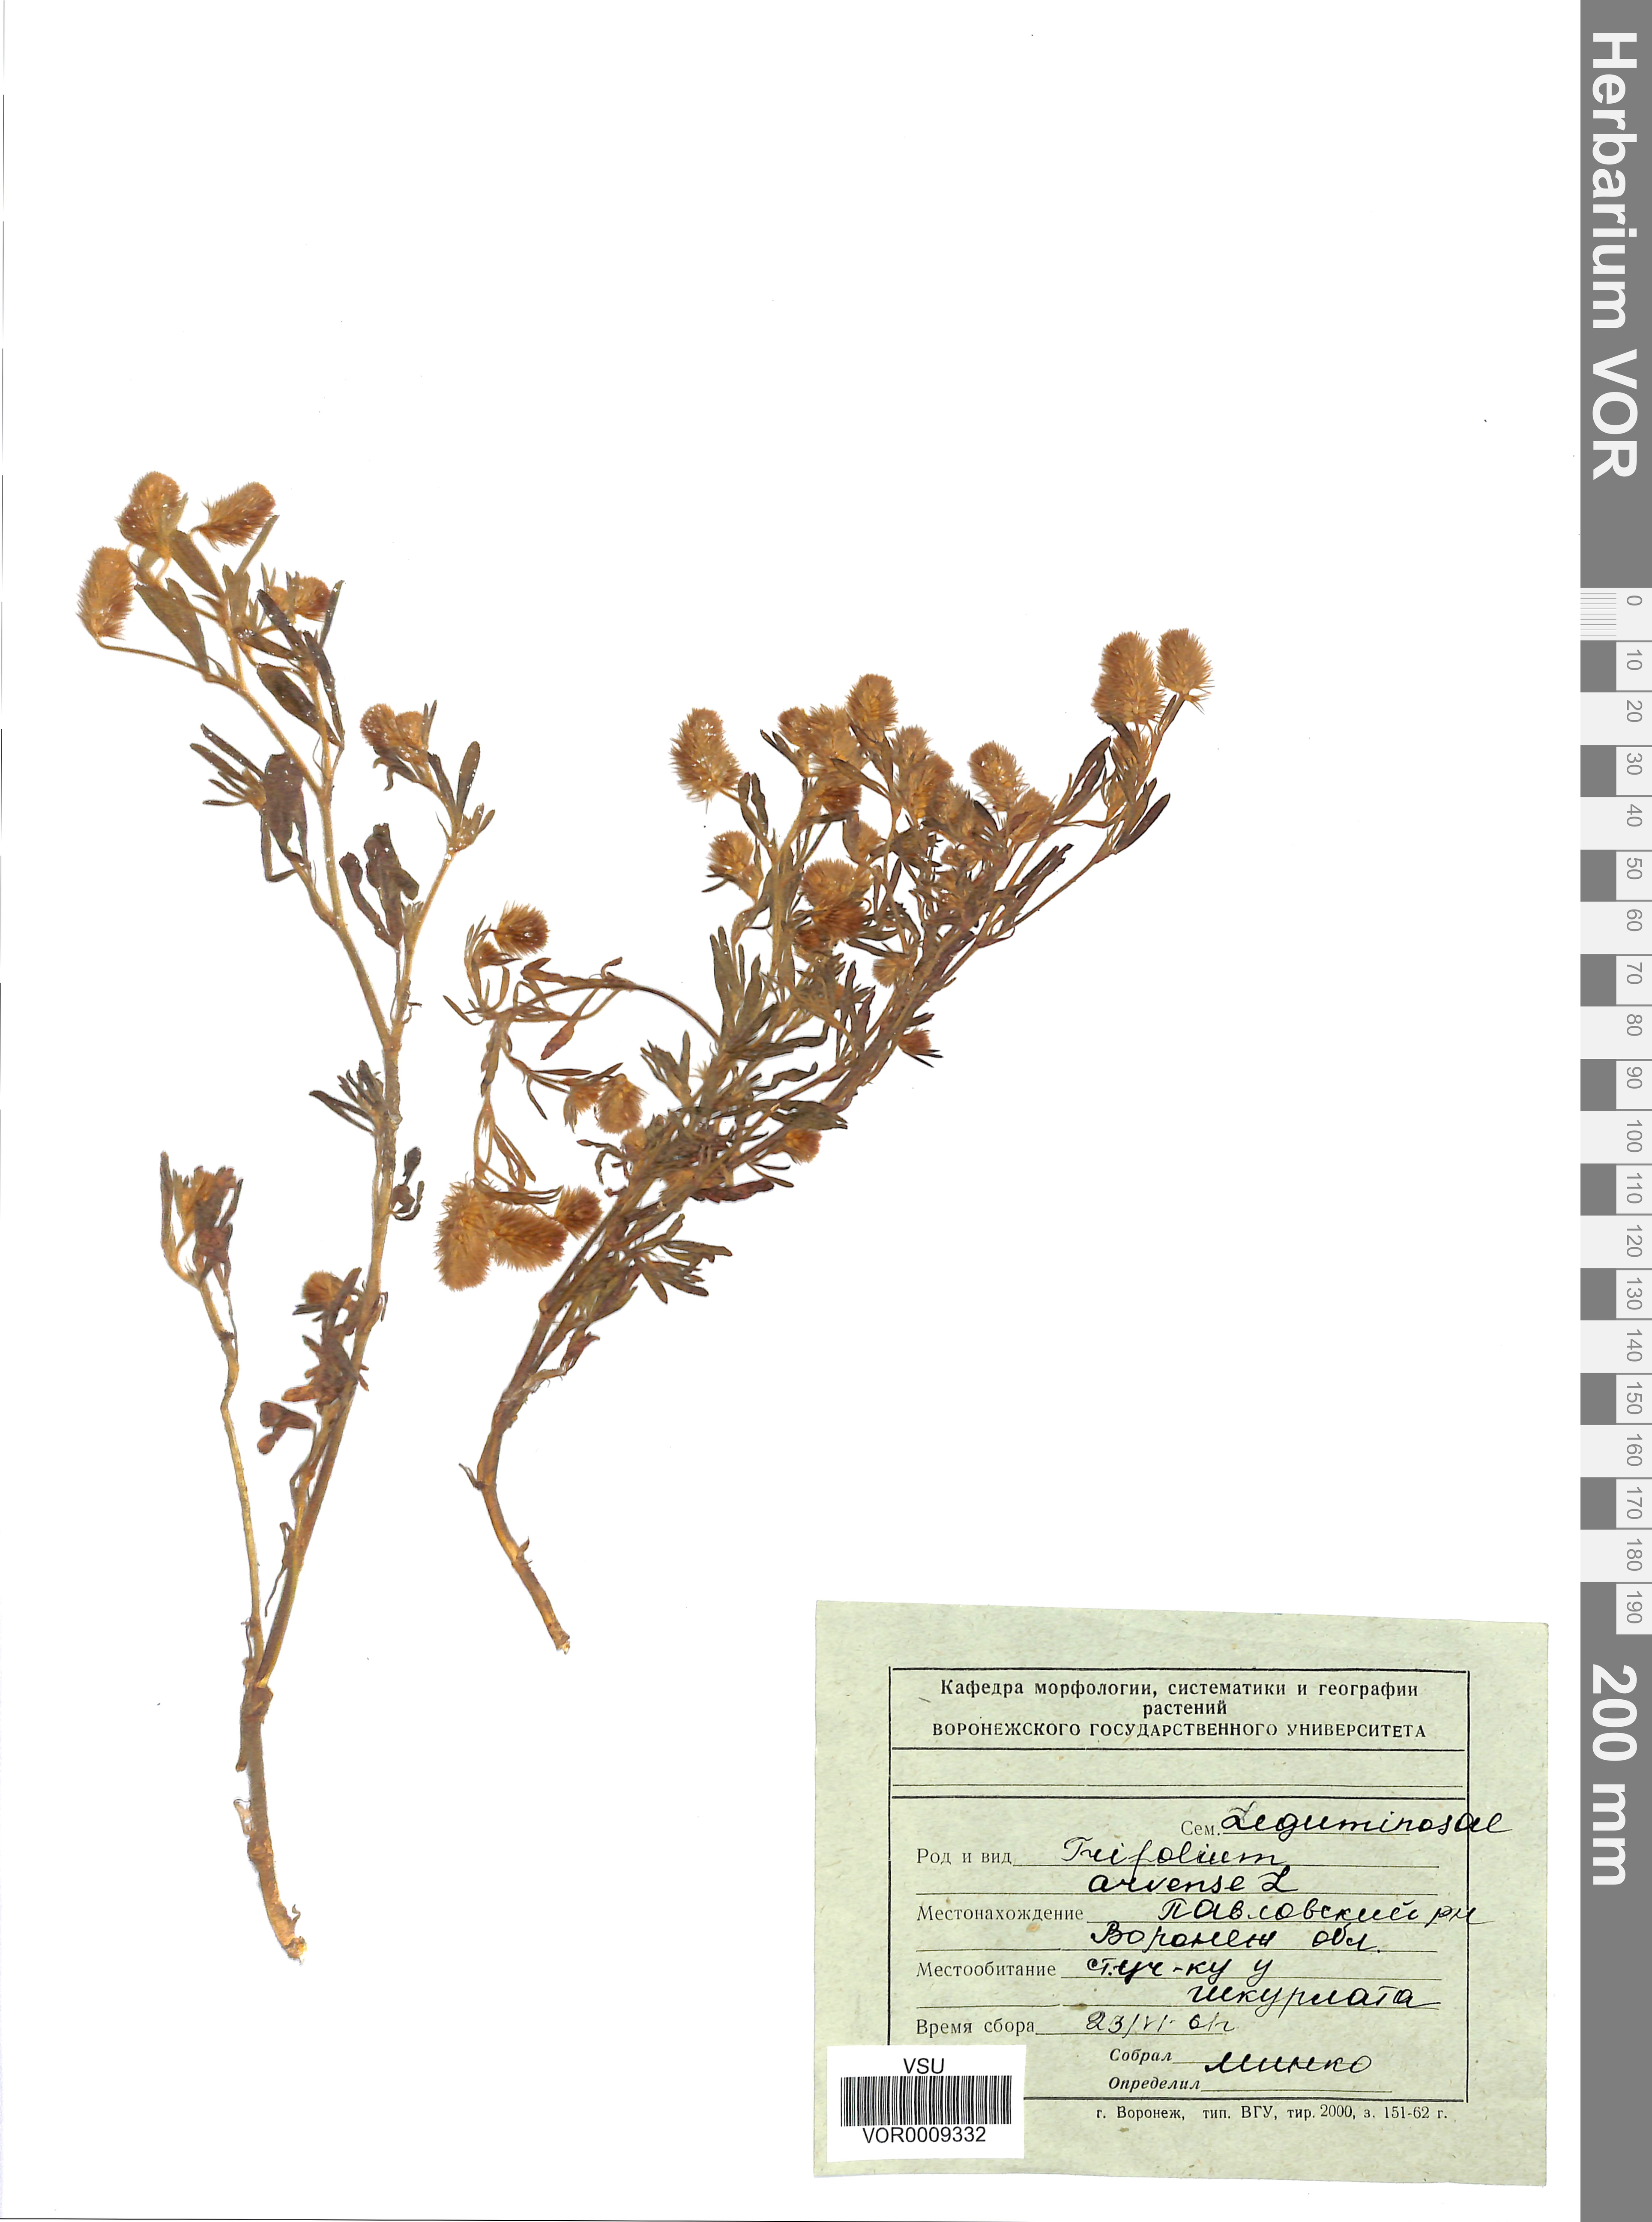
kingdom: Plantae
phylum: Tracheophyta
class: Magnoliopsida
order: Fabales
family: Fabaceae
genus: Trifolium
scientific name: Trifolium arvense
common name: Hare's-foot clover
